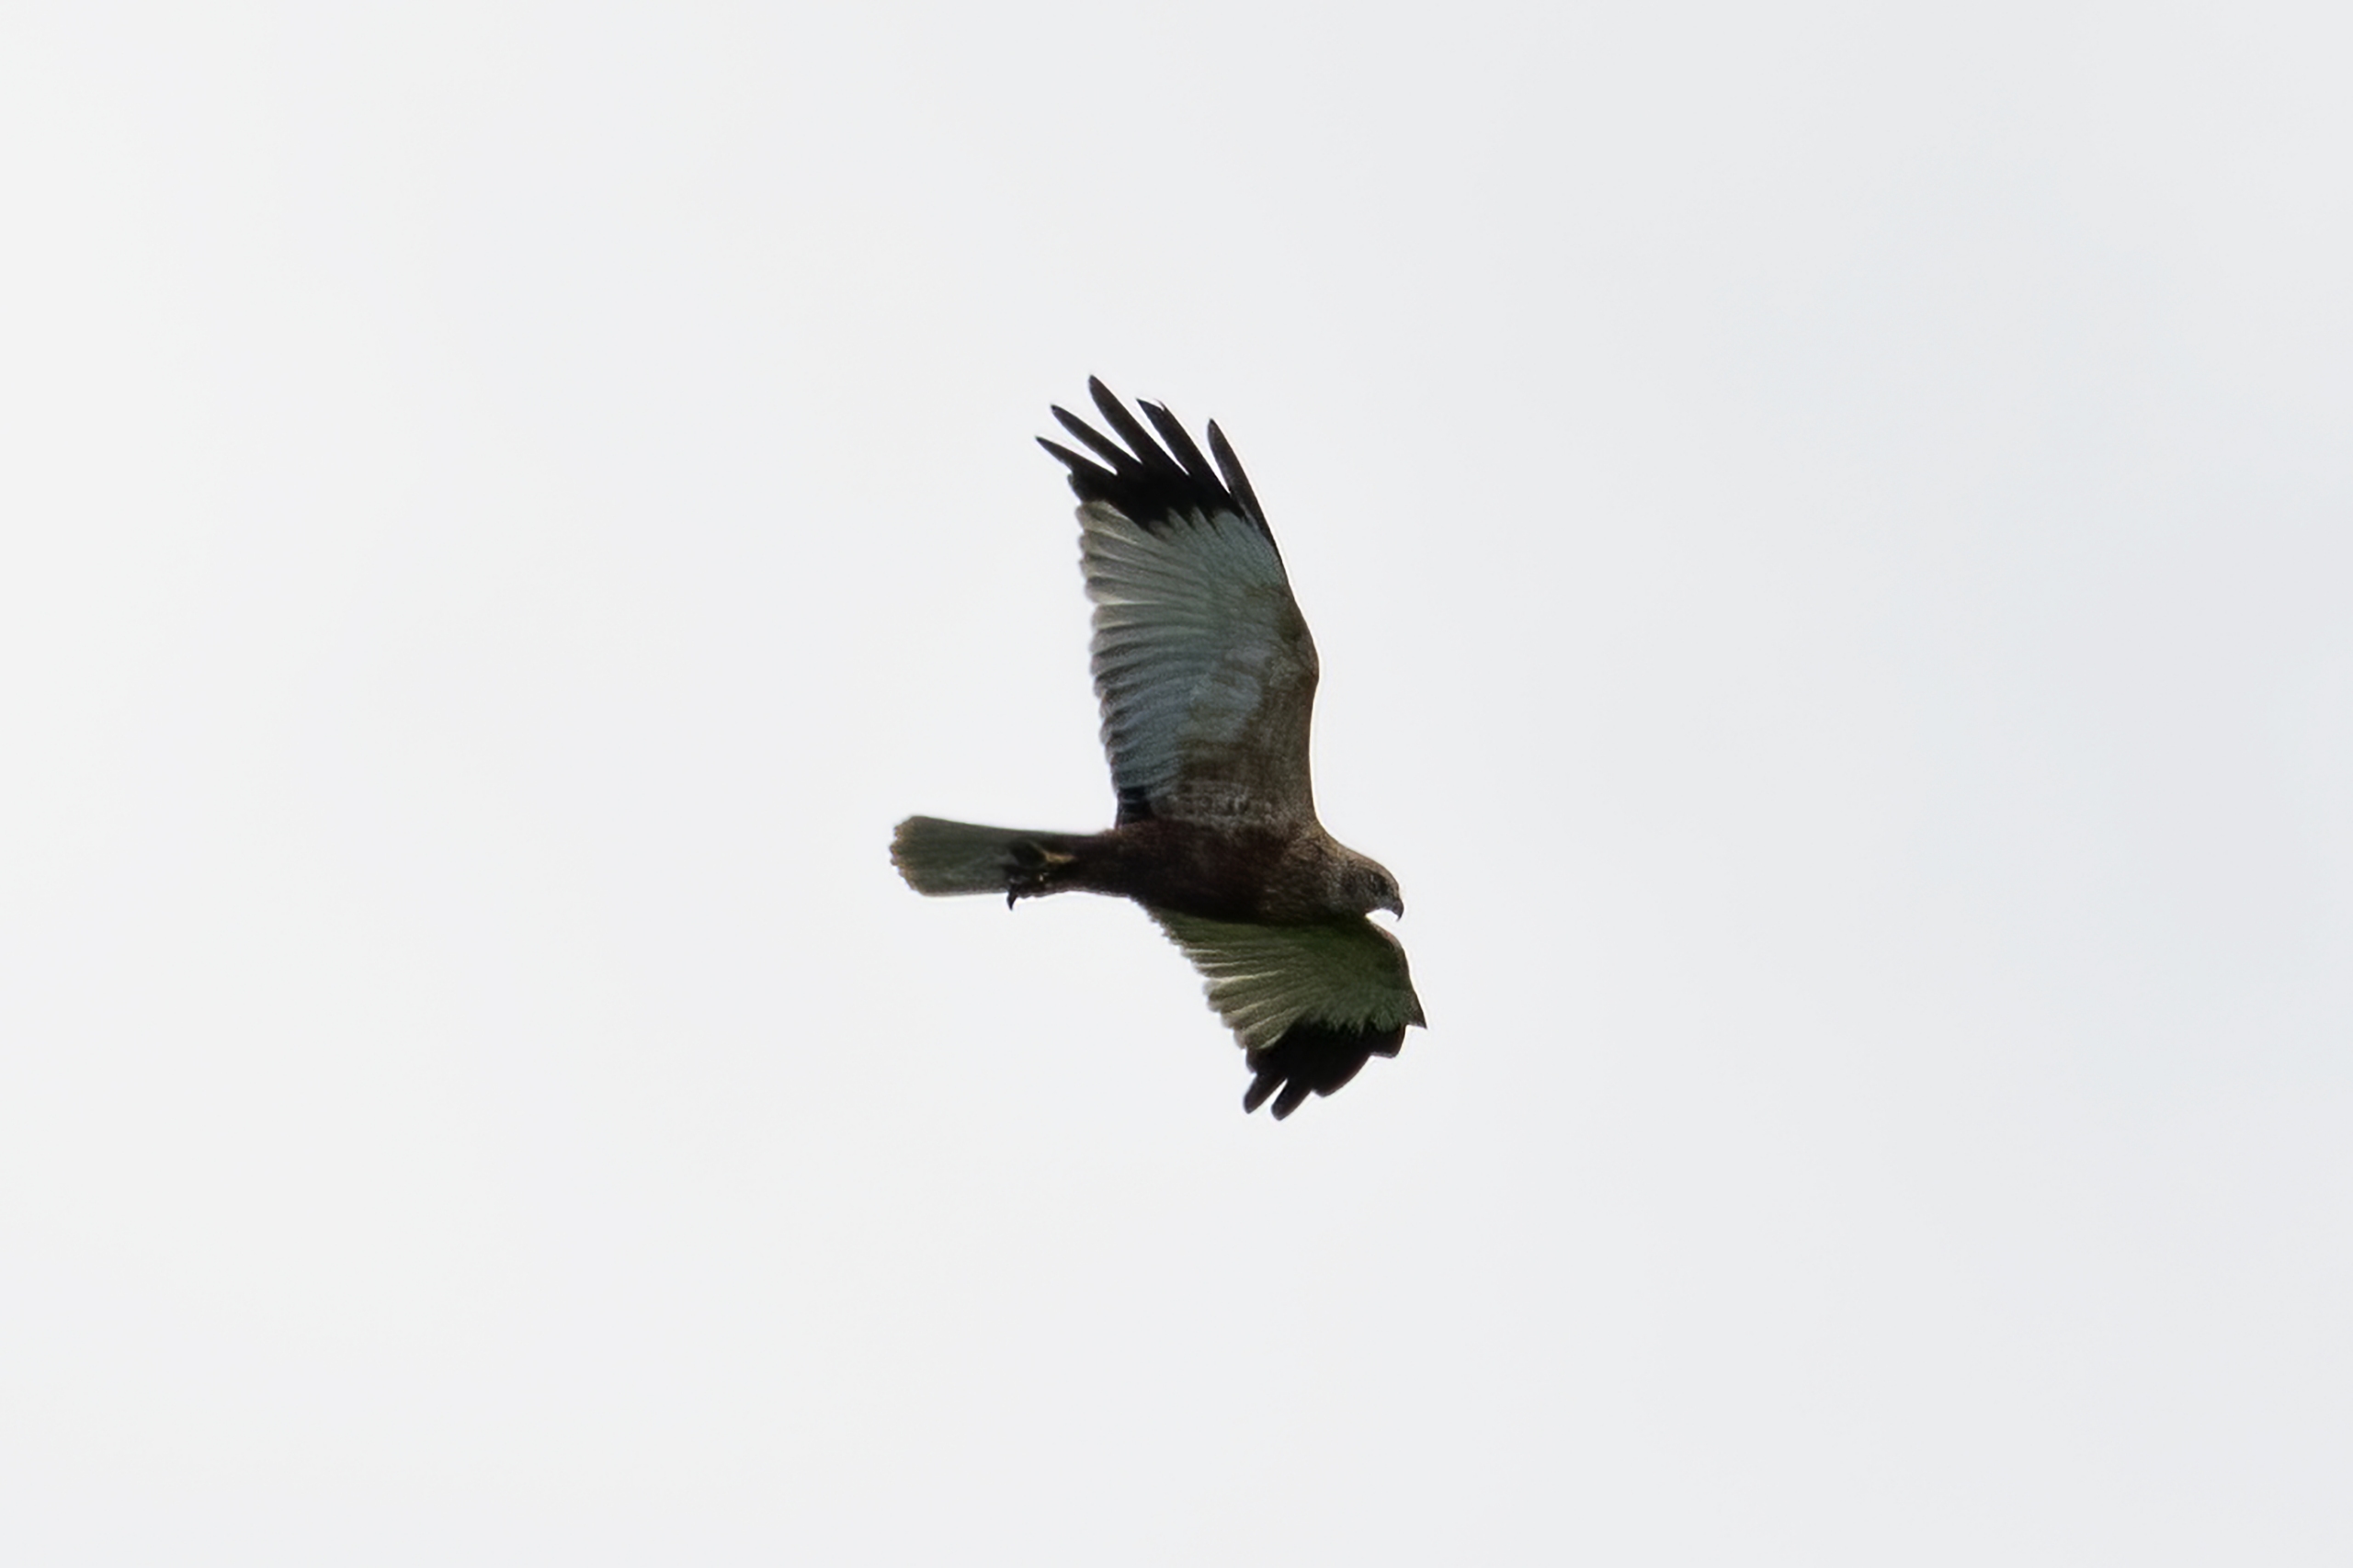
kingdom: Animalia
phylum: Chordata
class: Aves
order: Accipitriformes
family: Accipitridae
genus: Circus
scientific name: Circus aeruginosus
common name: Rørhøg
